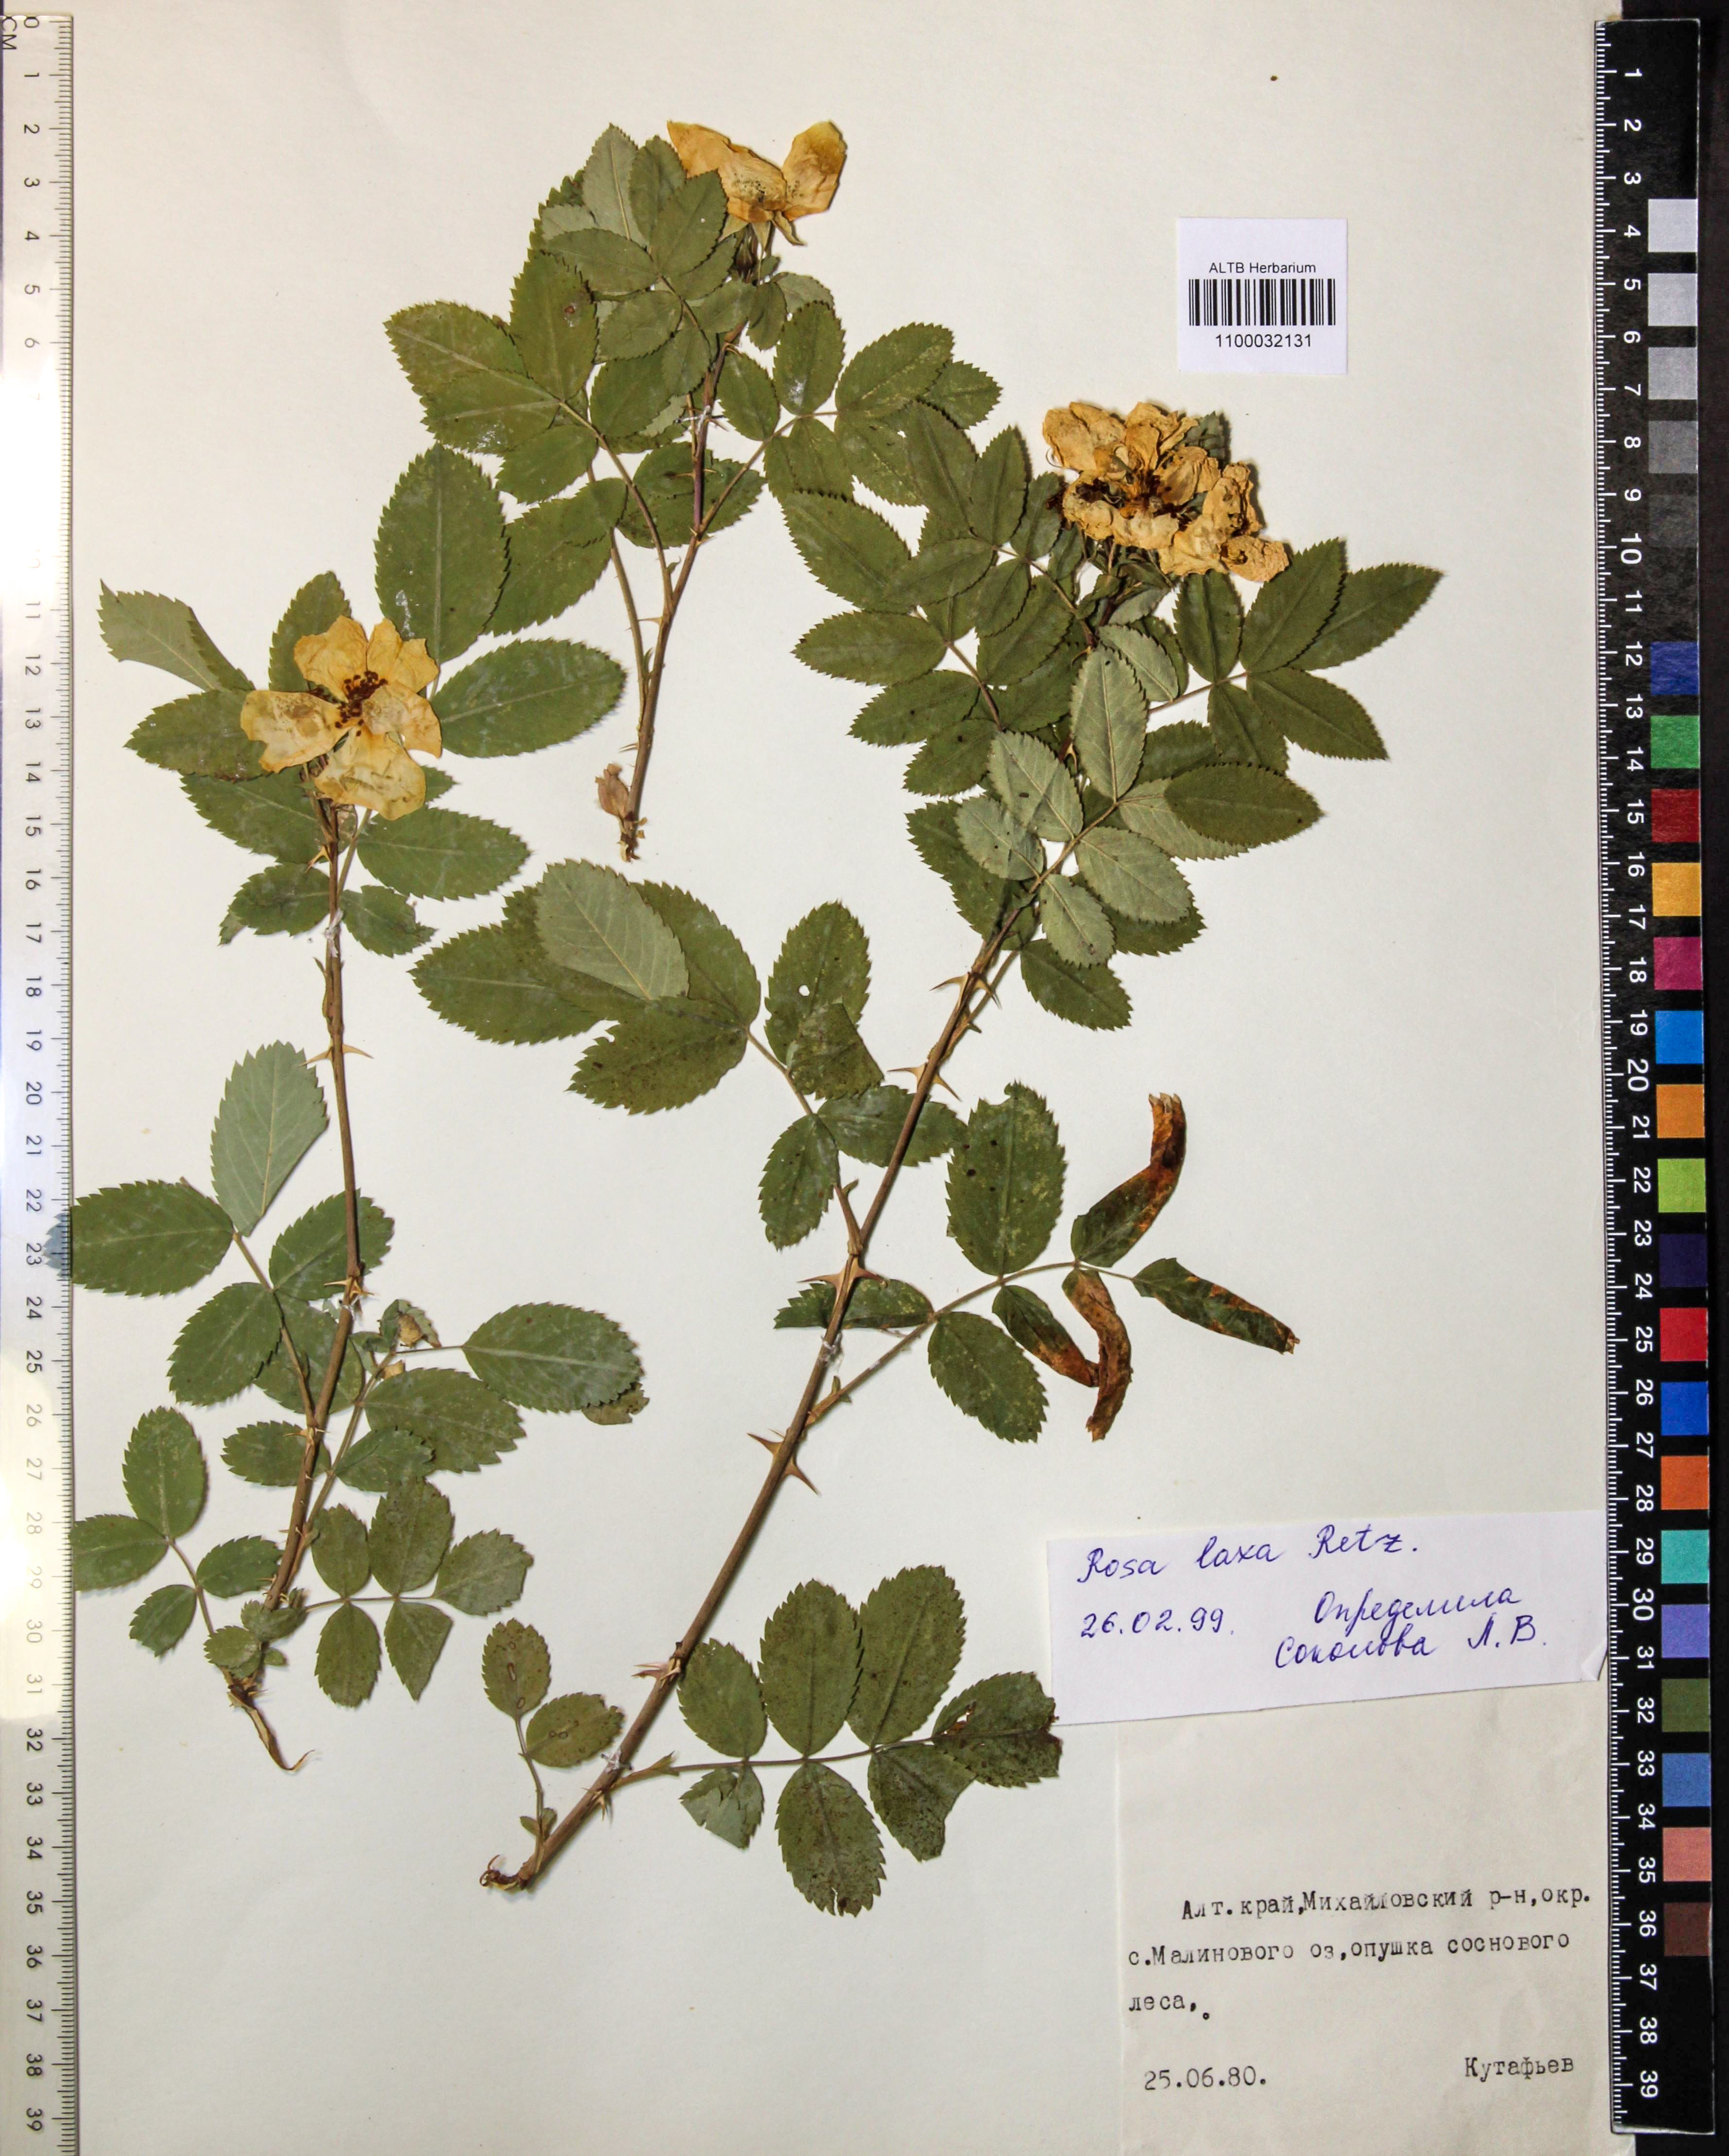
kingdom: Plantae
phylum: Tracheophyta
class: Magnoliopsida
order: Rosales
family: Rosaceae
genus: Rosa
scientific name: Rosa laxa
